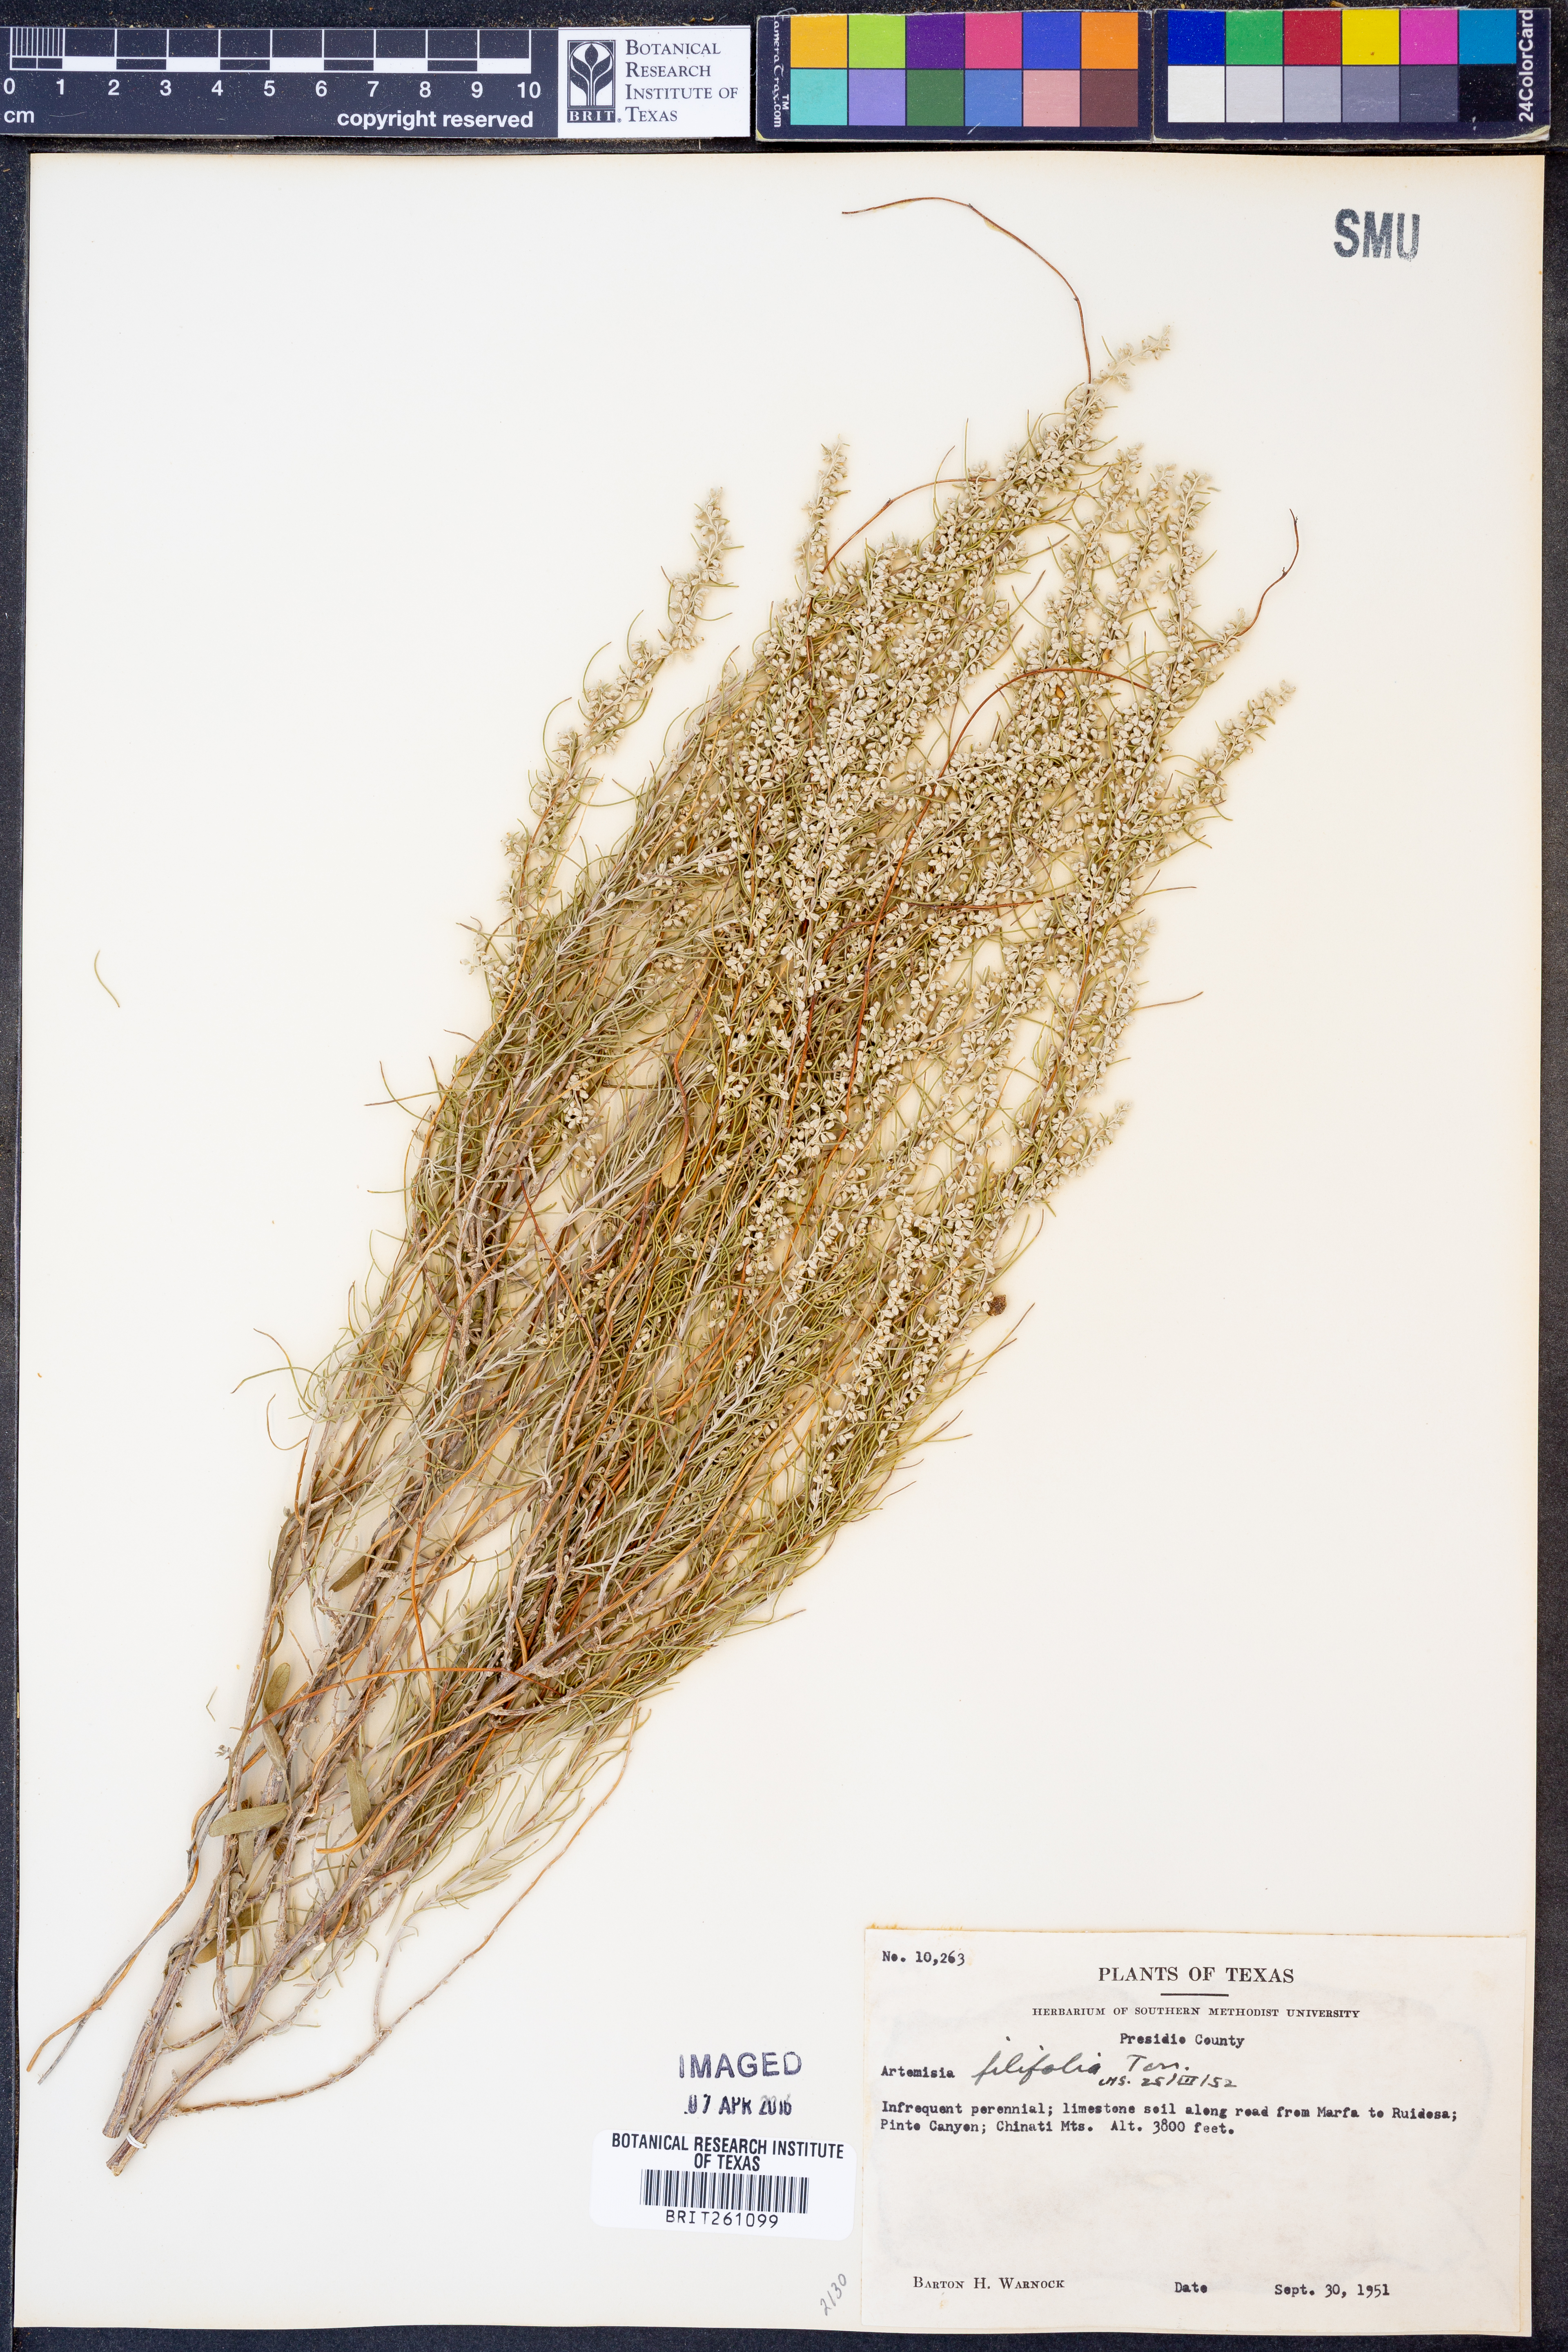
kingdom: Plantae
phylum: Tracheophyta
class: Magnoliopsida
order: Asterales
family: Asteraceae
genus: Artemisia
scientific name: Artemisia filifolia
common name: Sand-sage
